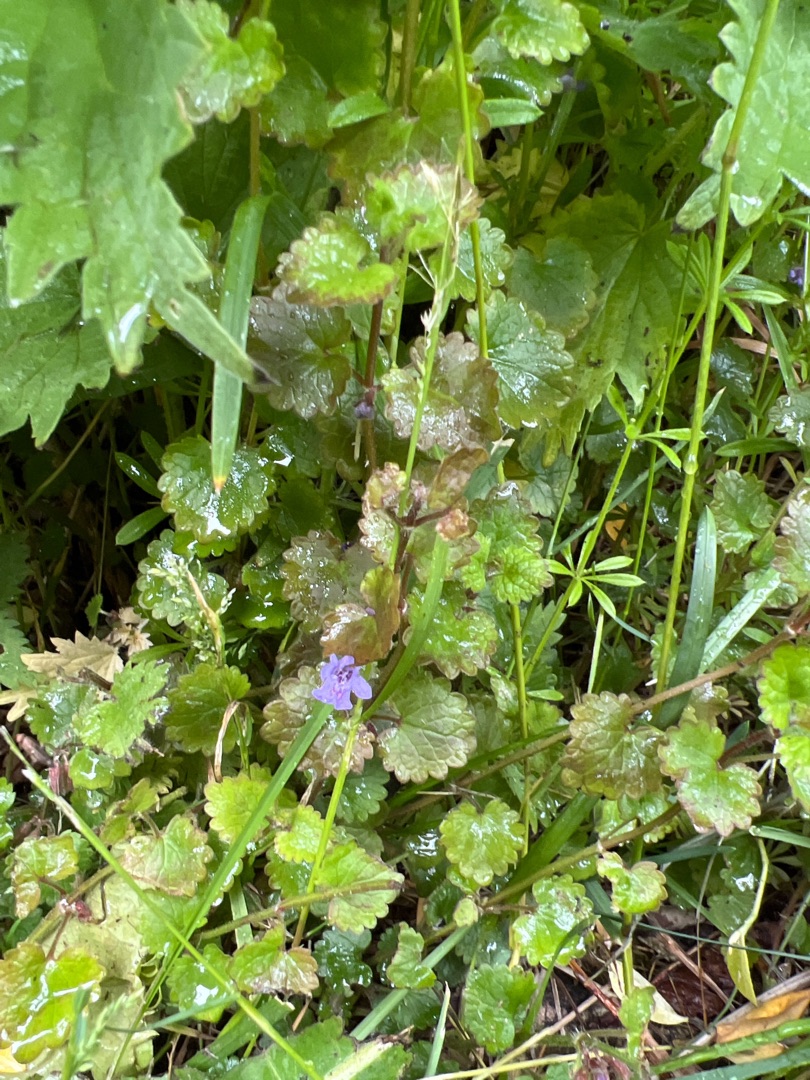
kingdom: Plantae
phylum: Tracheophyta
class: Magnoliopsida
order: Lamiales
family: Lamiaceae
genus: Glechoma
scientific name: Glechoma hederacea
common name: Korsknap
